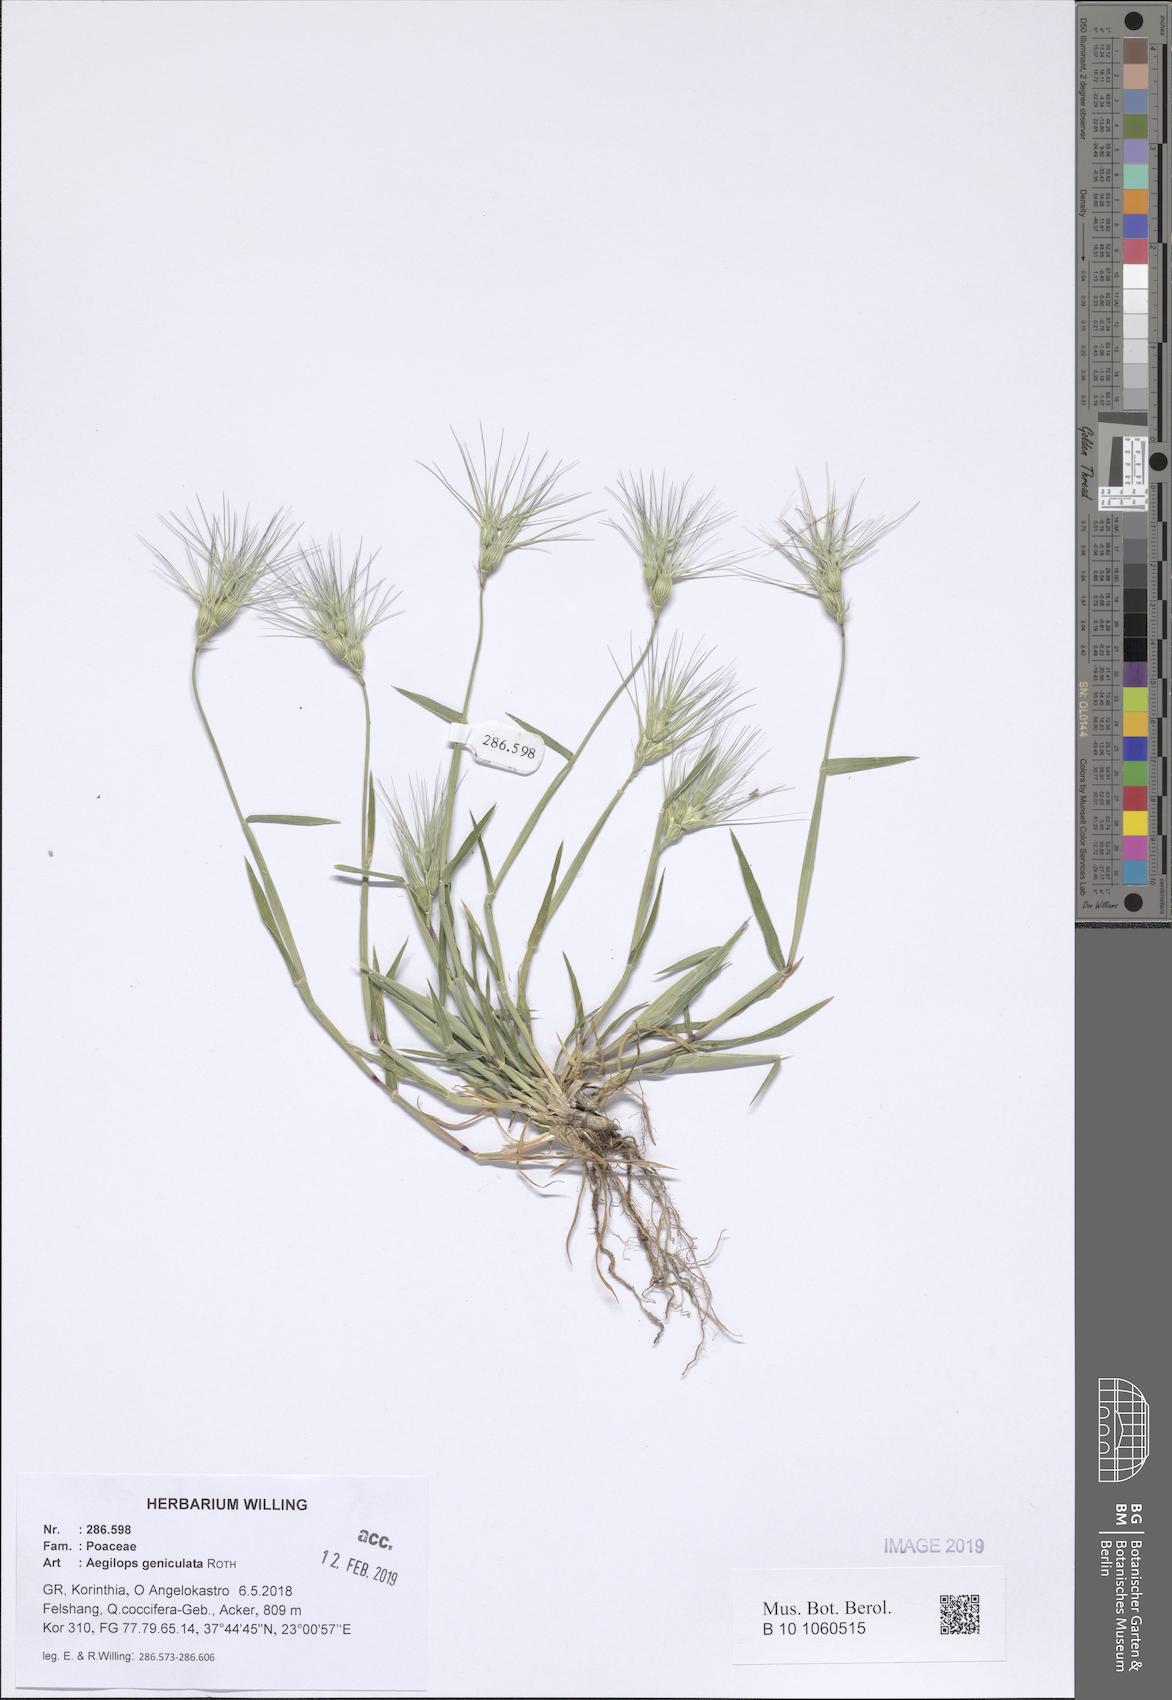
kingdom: Plantae
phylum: Tracheophyta
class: Liliopsida
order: Poales
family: Poaceae
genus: Aegilops
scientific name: Aegilops geniculata
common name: Ovate goat grass
